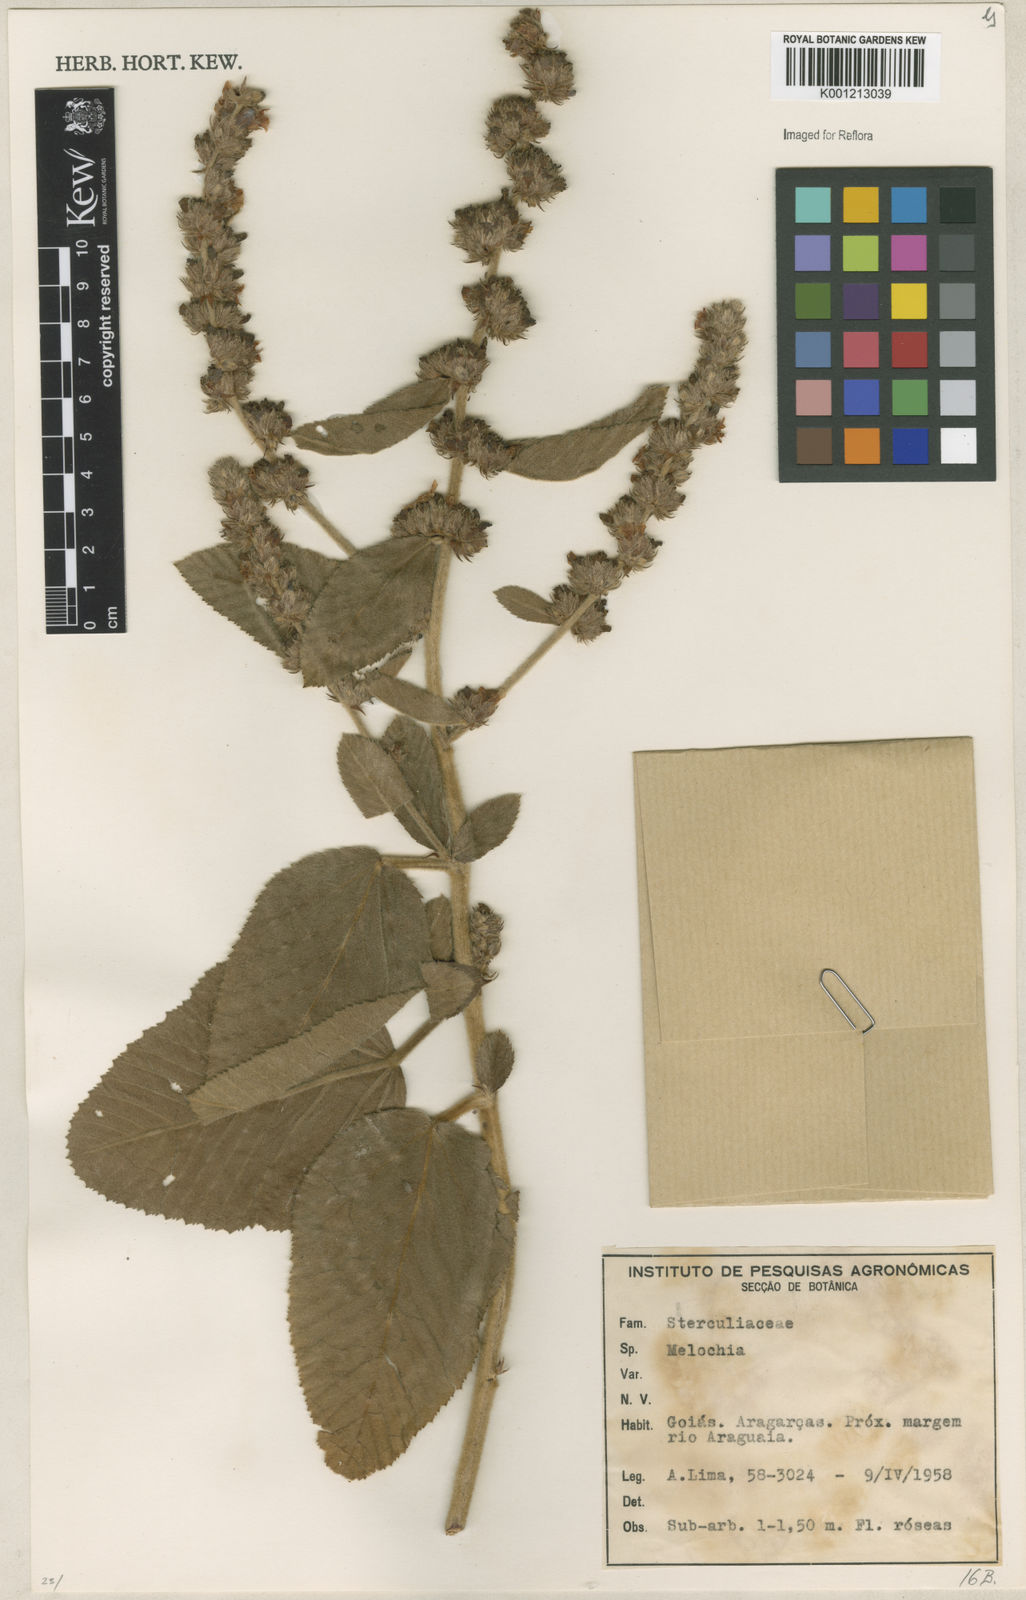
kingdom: Plantae
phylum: Tracheophyta
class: Magnoliopsida
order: Malvales
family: Malvaceae
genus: Melochia
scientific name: Melochia
